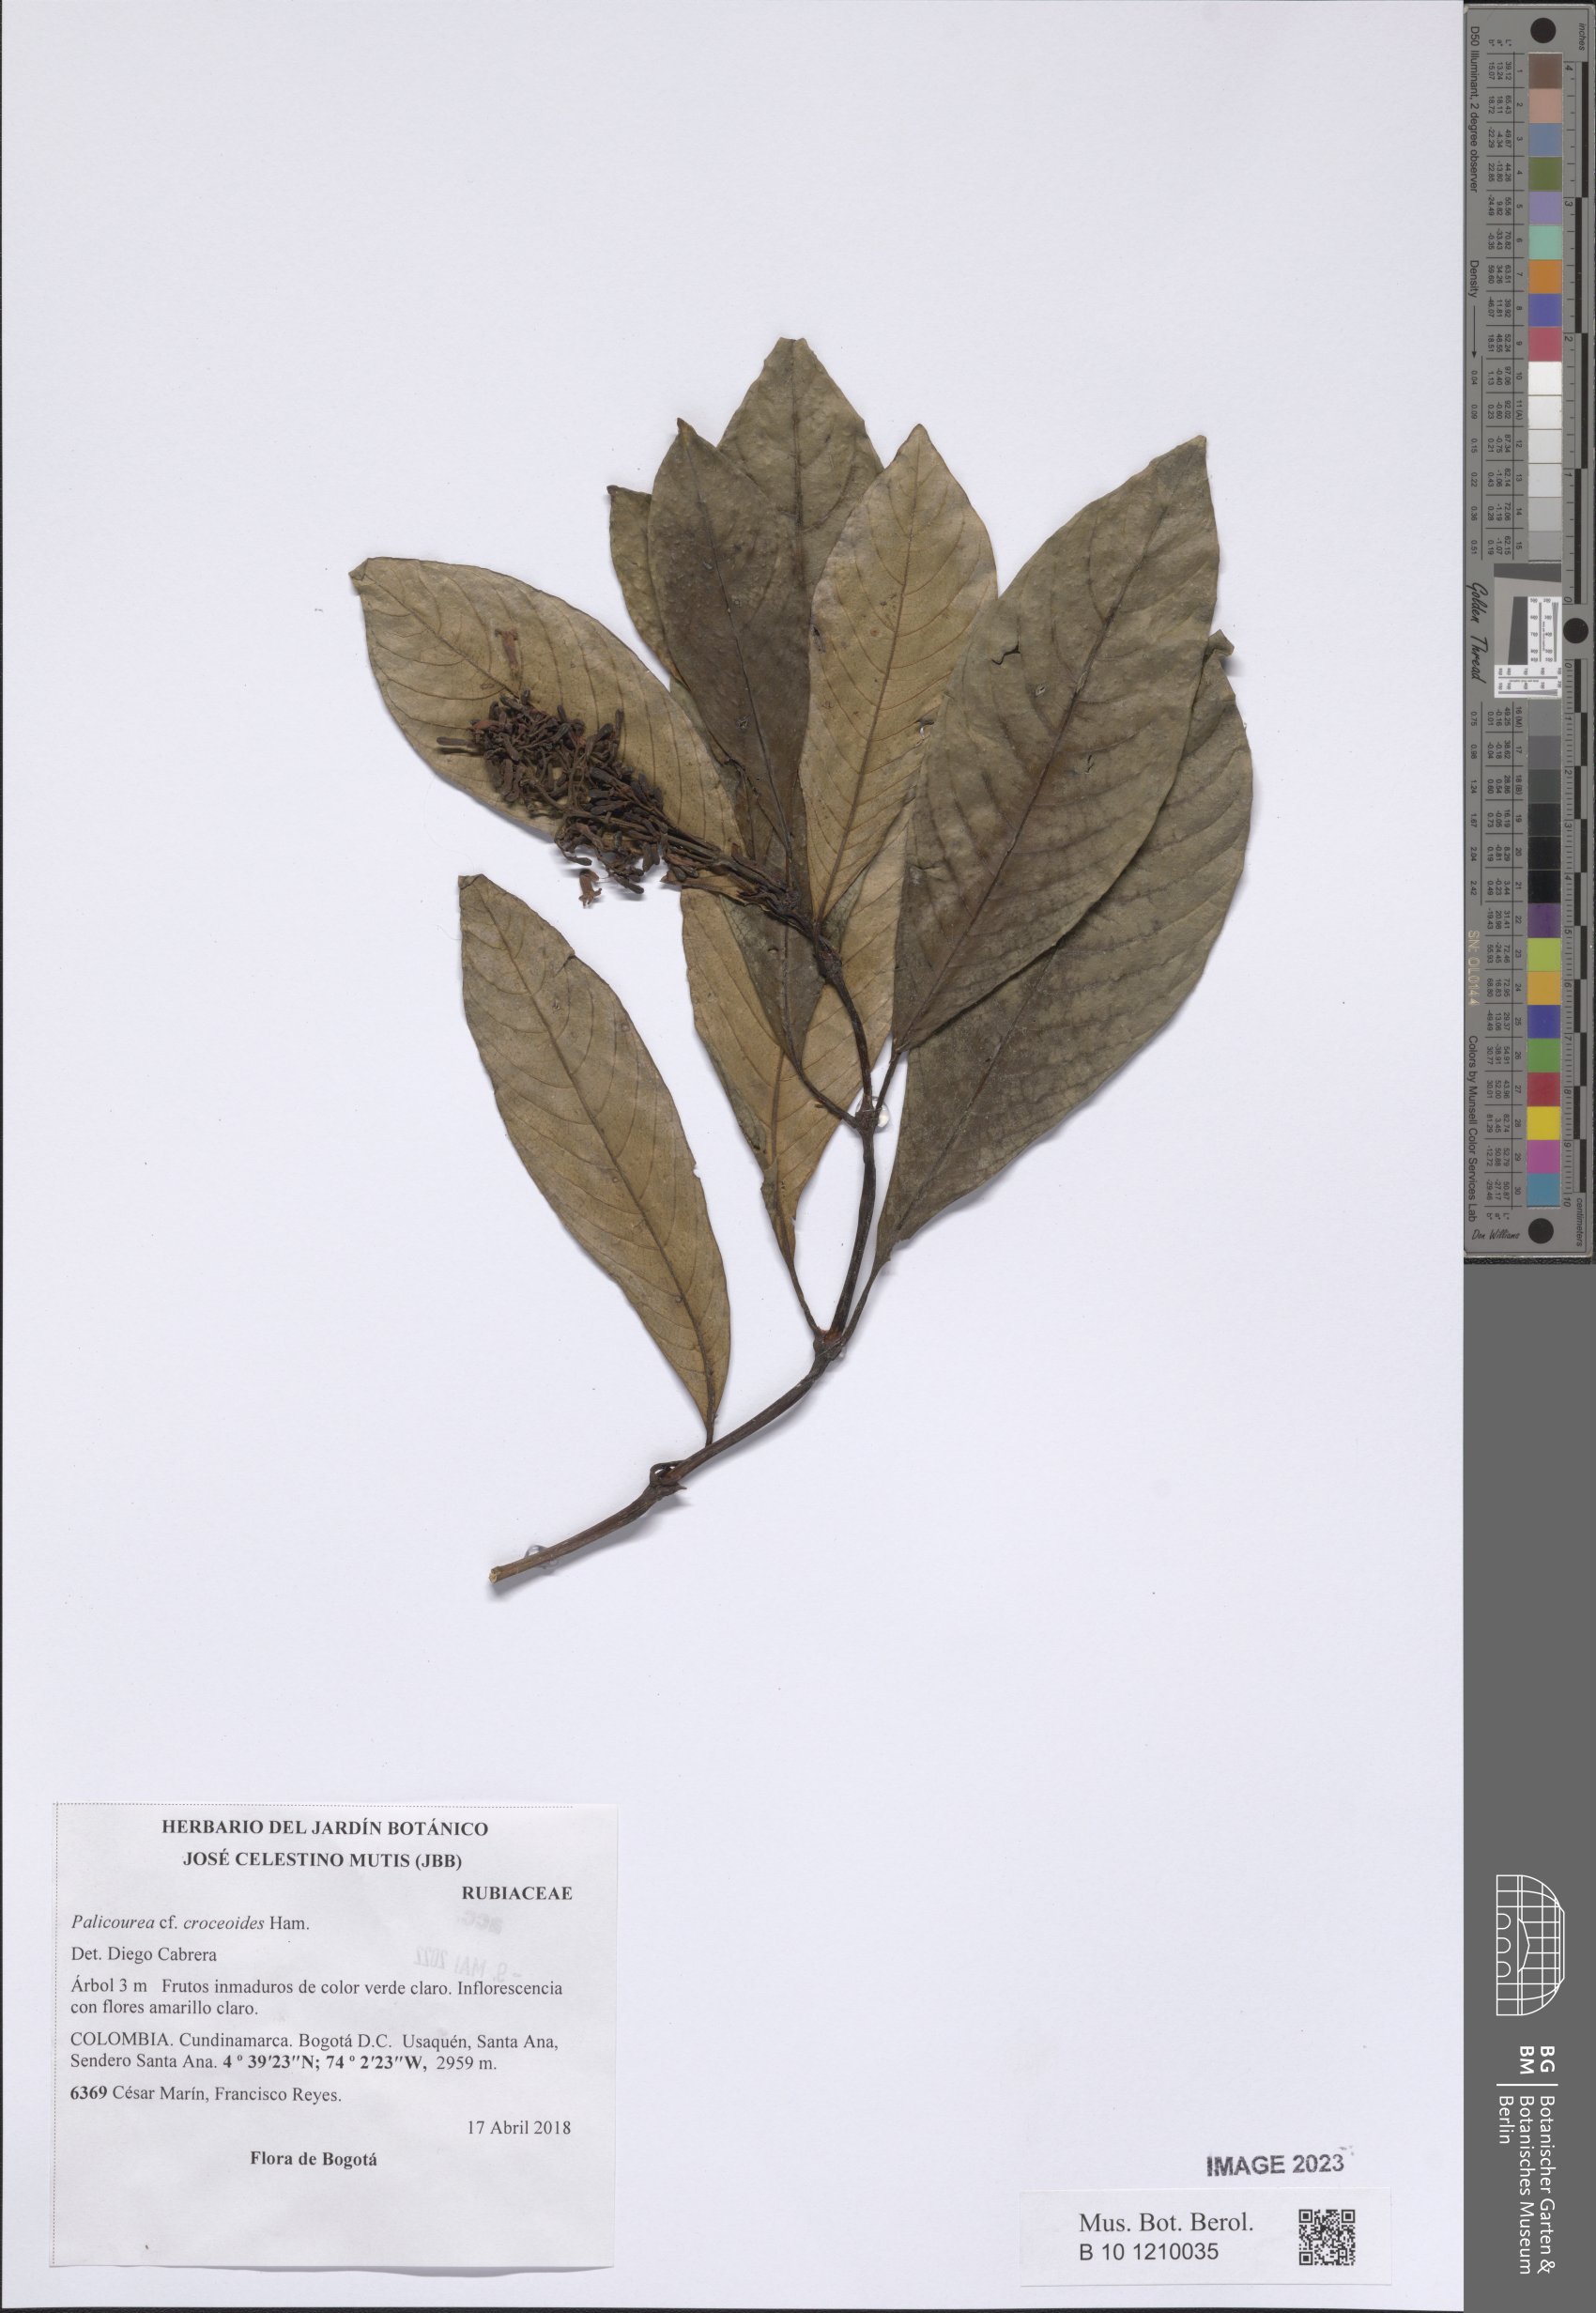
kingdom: Plantae
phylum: Tracheophyta
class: Magnoliopsida
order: Gentianales
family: Rubiaceae
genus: Palicourea
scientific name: Palicourea croceoides
